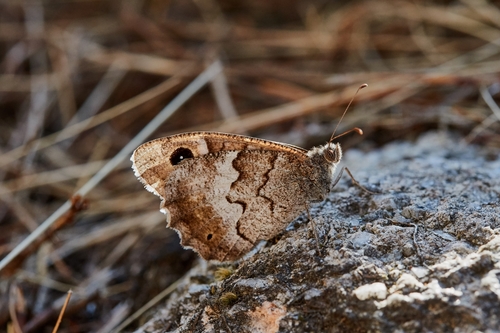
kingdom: Animalia
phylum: Arthropoda
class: Insecta
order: Lepidoptera
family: Nymphalidae
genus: Hipparchia
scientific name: Hipparchia statilinus
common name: Tree grayling
